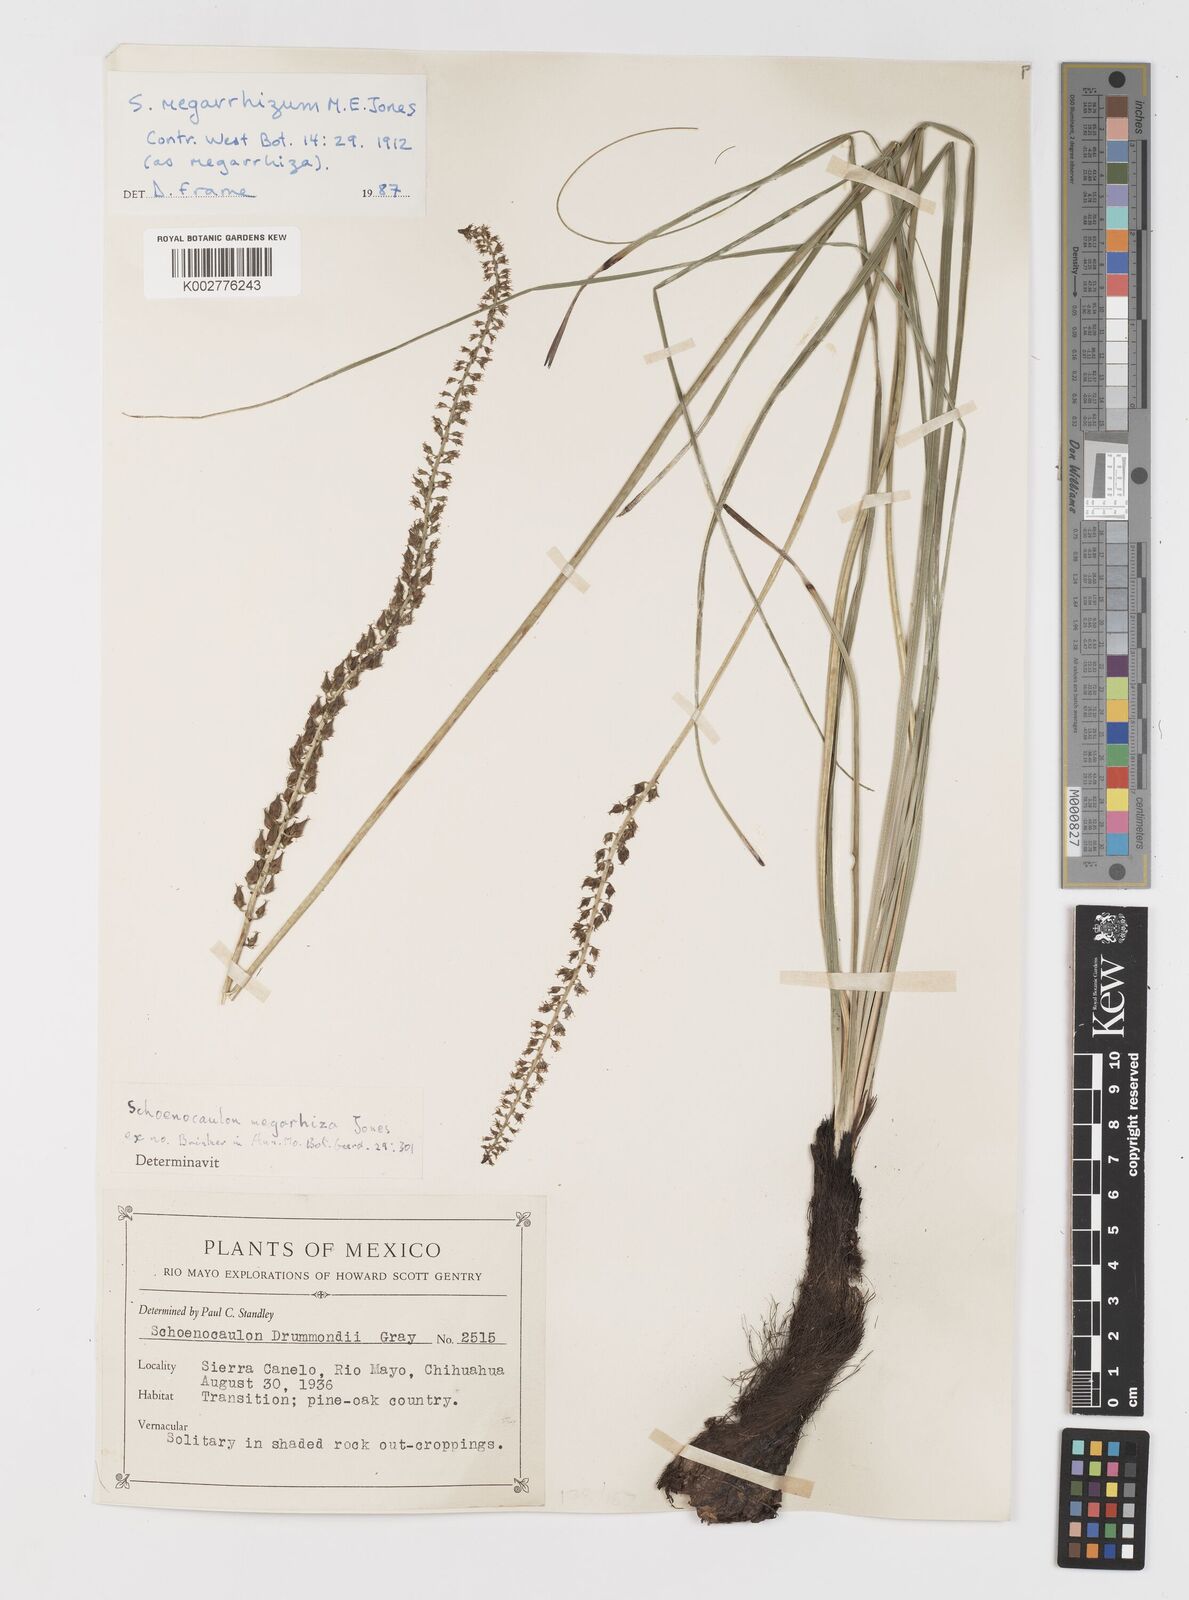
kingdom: Plantae
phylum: Tracheophyta
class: Liliopsida
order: Liliales
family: Melanthiaceae
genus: Schoenocaulon
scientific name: Schoenocaulon megarrhizum
